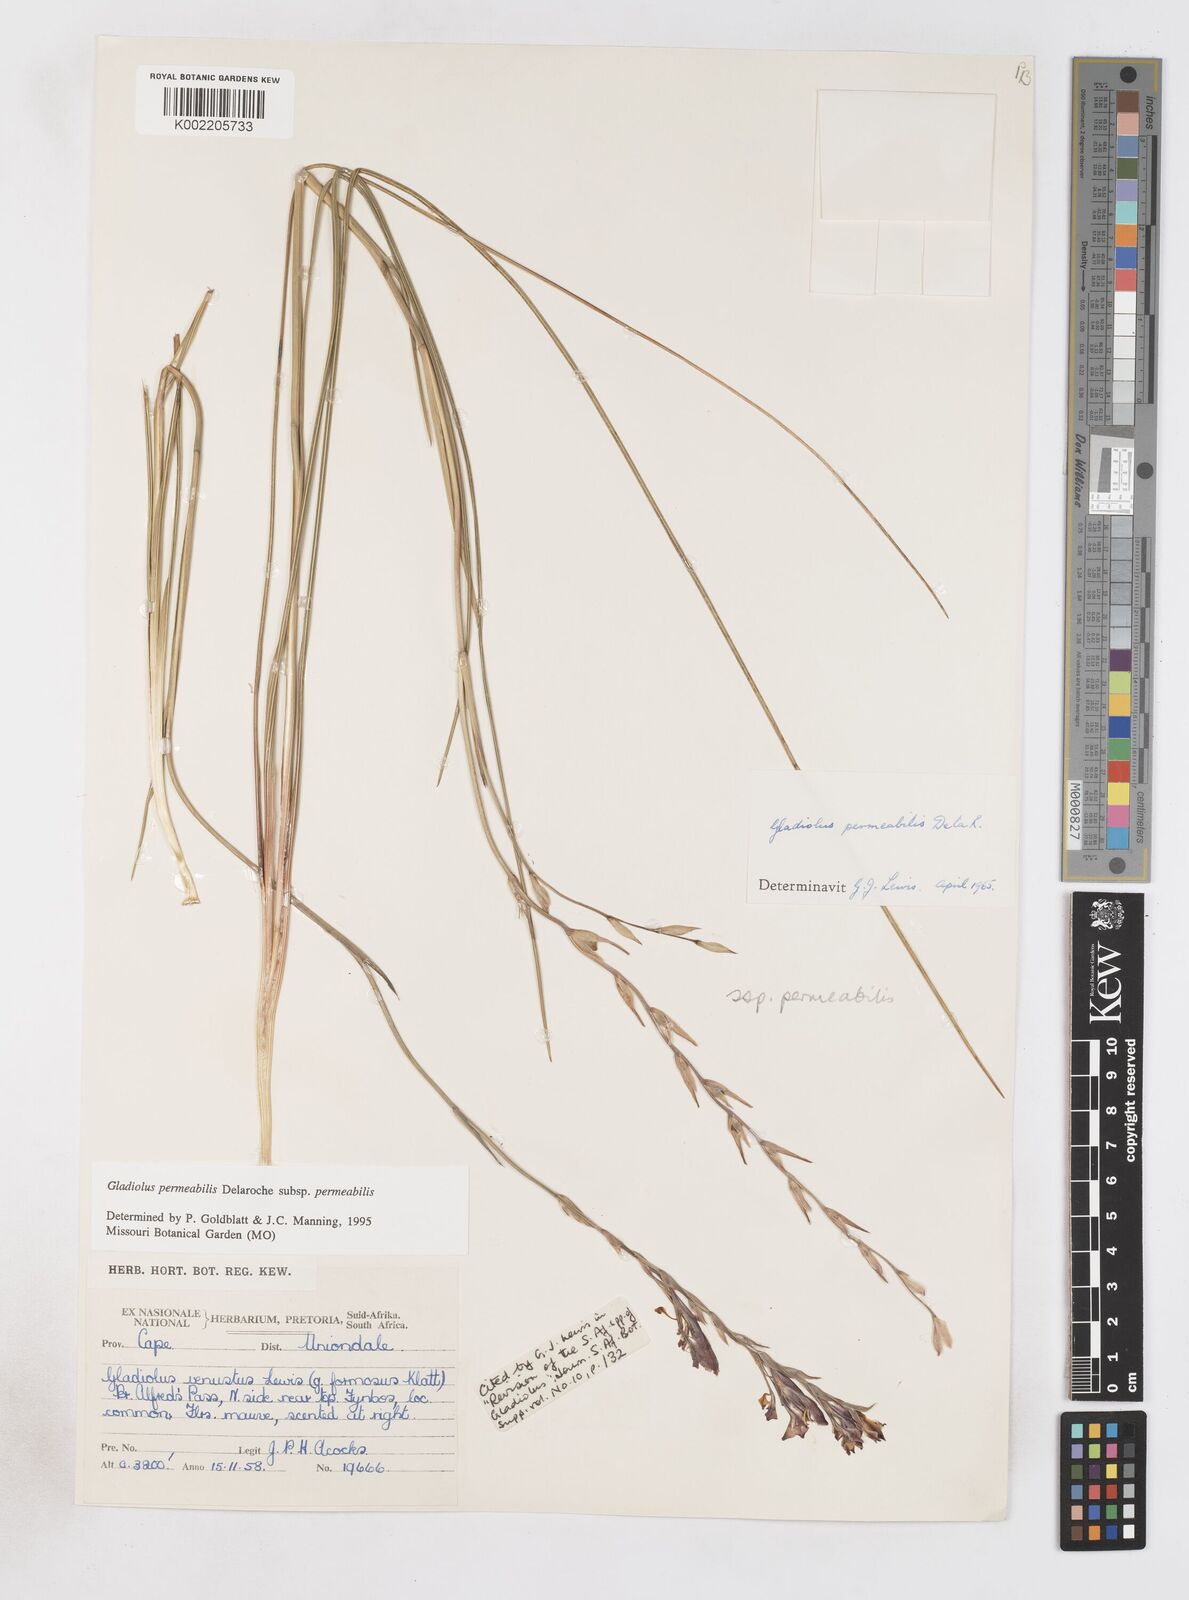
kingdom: Plantae
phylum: Tracheophyta
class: Liliopsida
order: Asparagales
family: Iridaceae
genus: Gladiolus
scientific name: Gladiolus permeabilis
